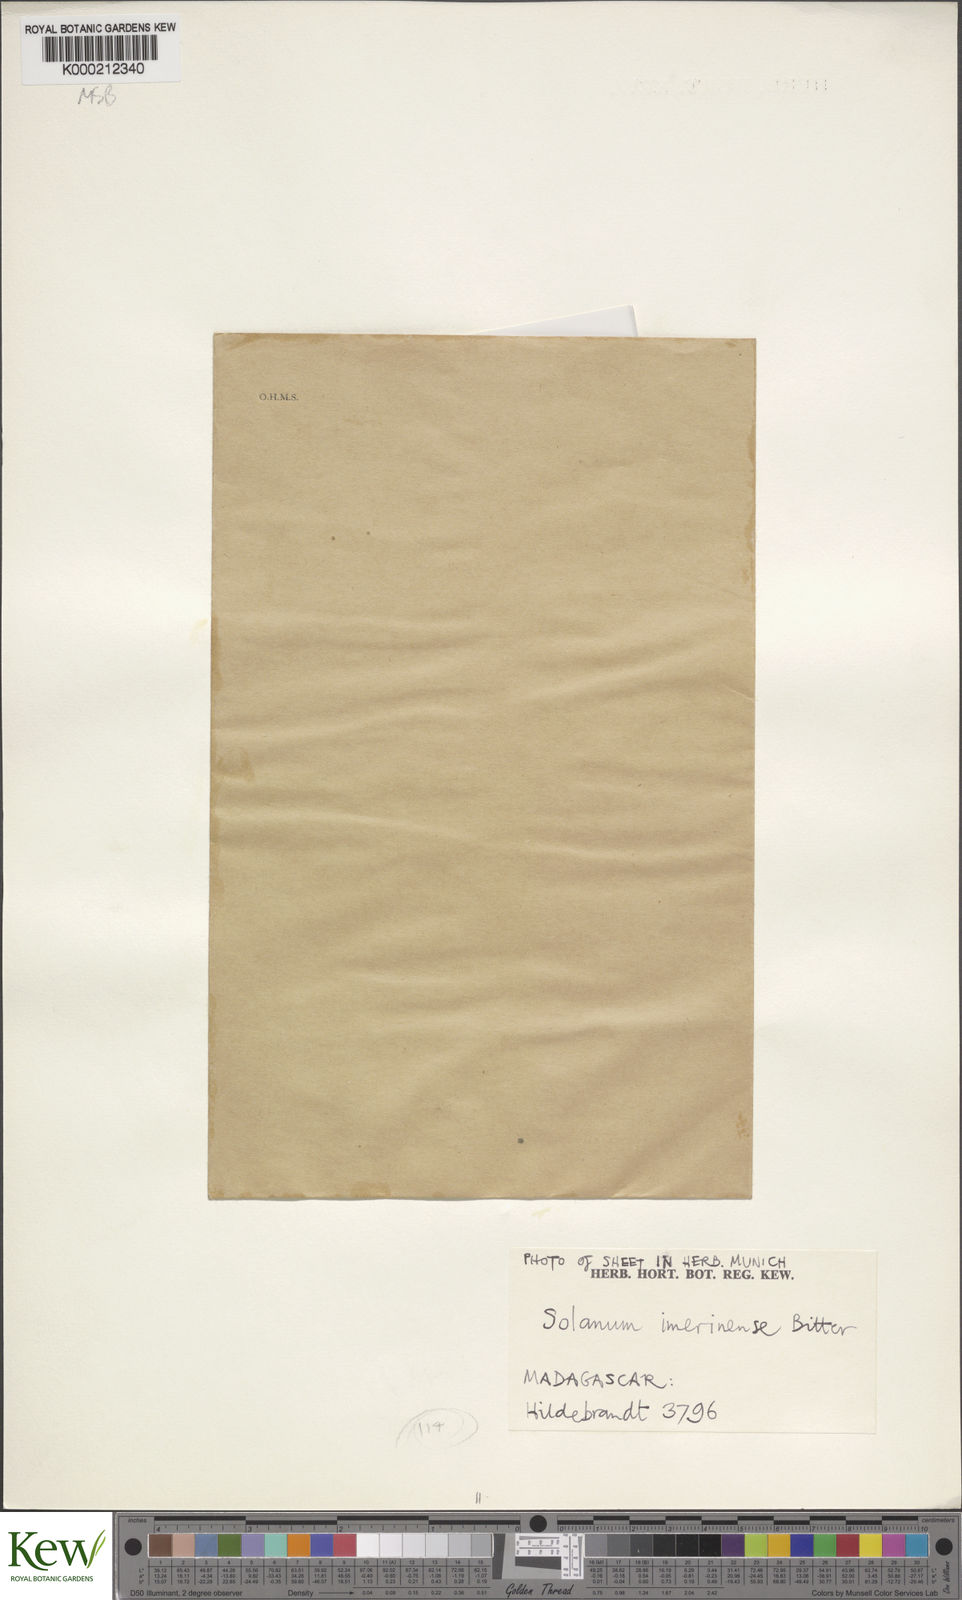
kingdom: Plantae
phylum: Tracheophyta
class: Magnoliopsida
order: Solanales
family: Solanaceae
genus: Solanum
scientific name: Solanum americanum
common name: American black nightshade
